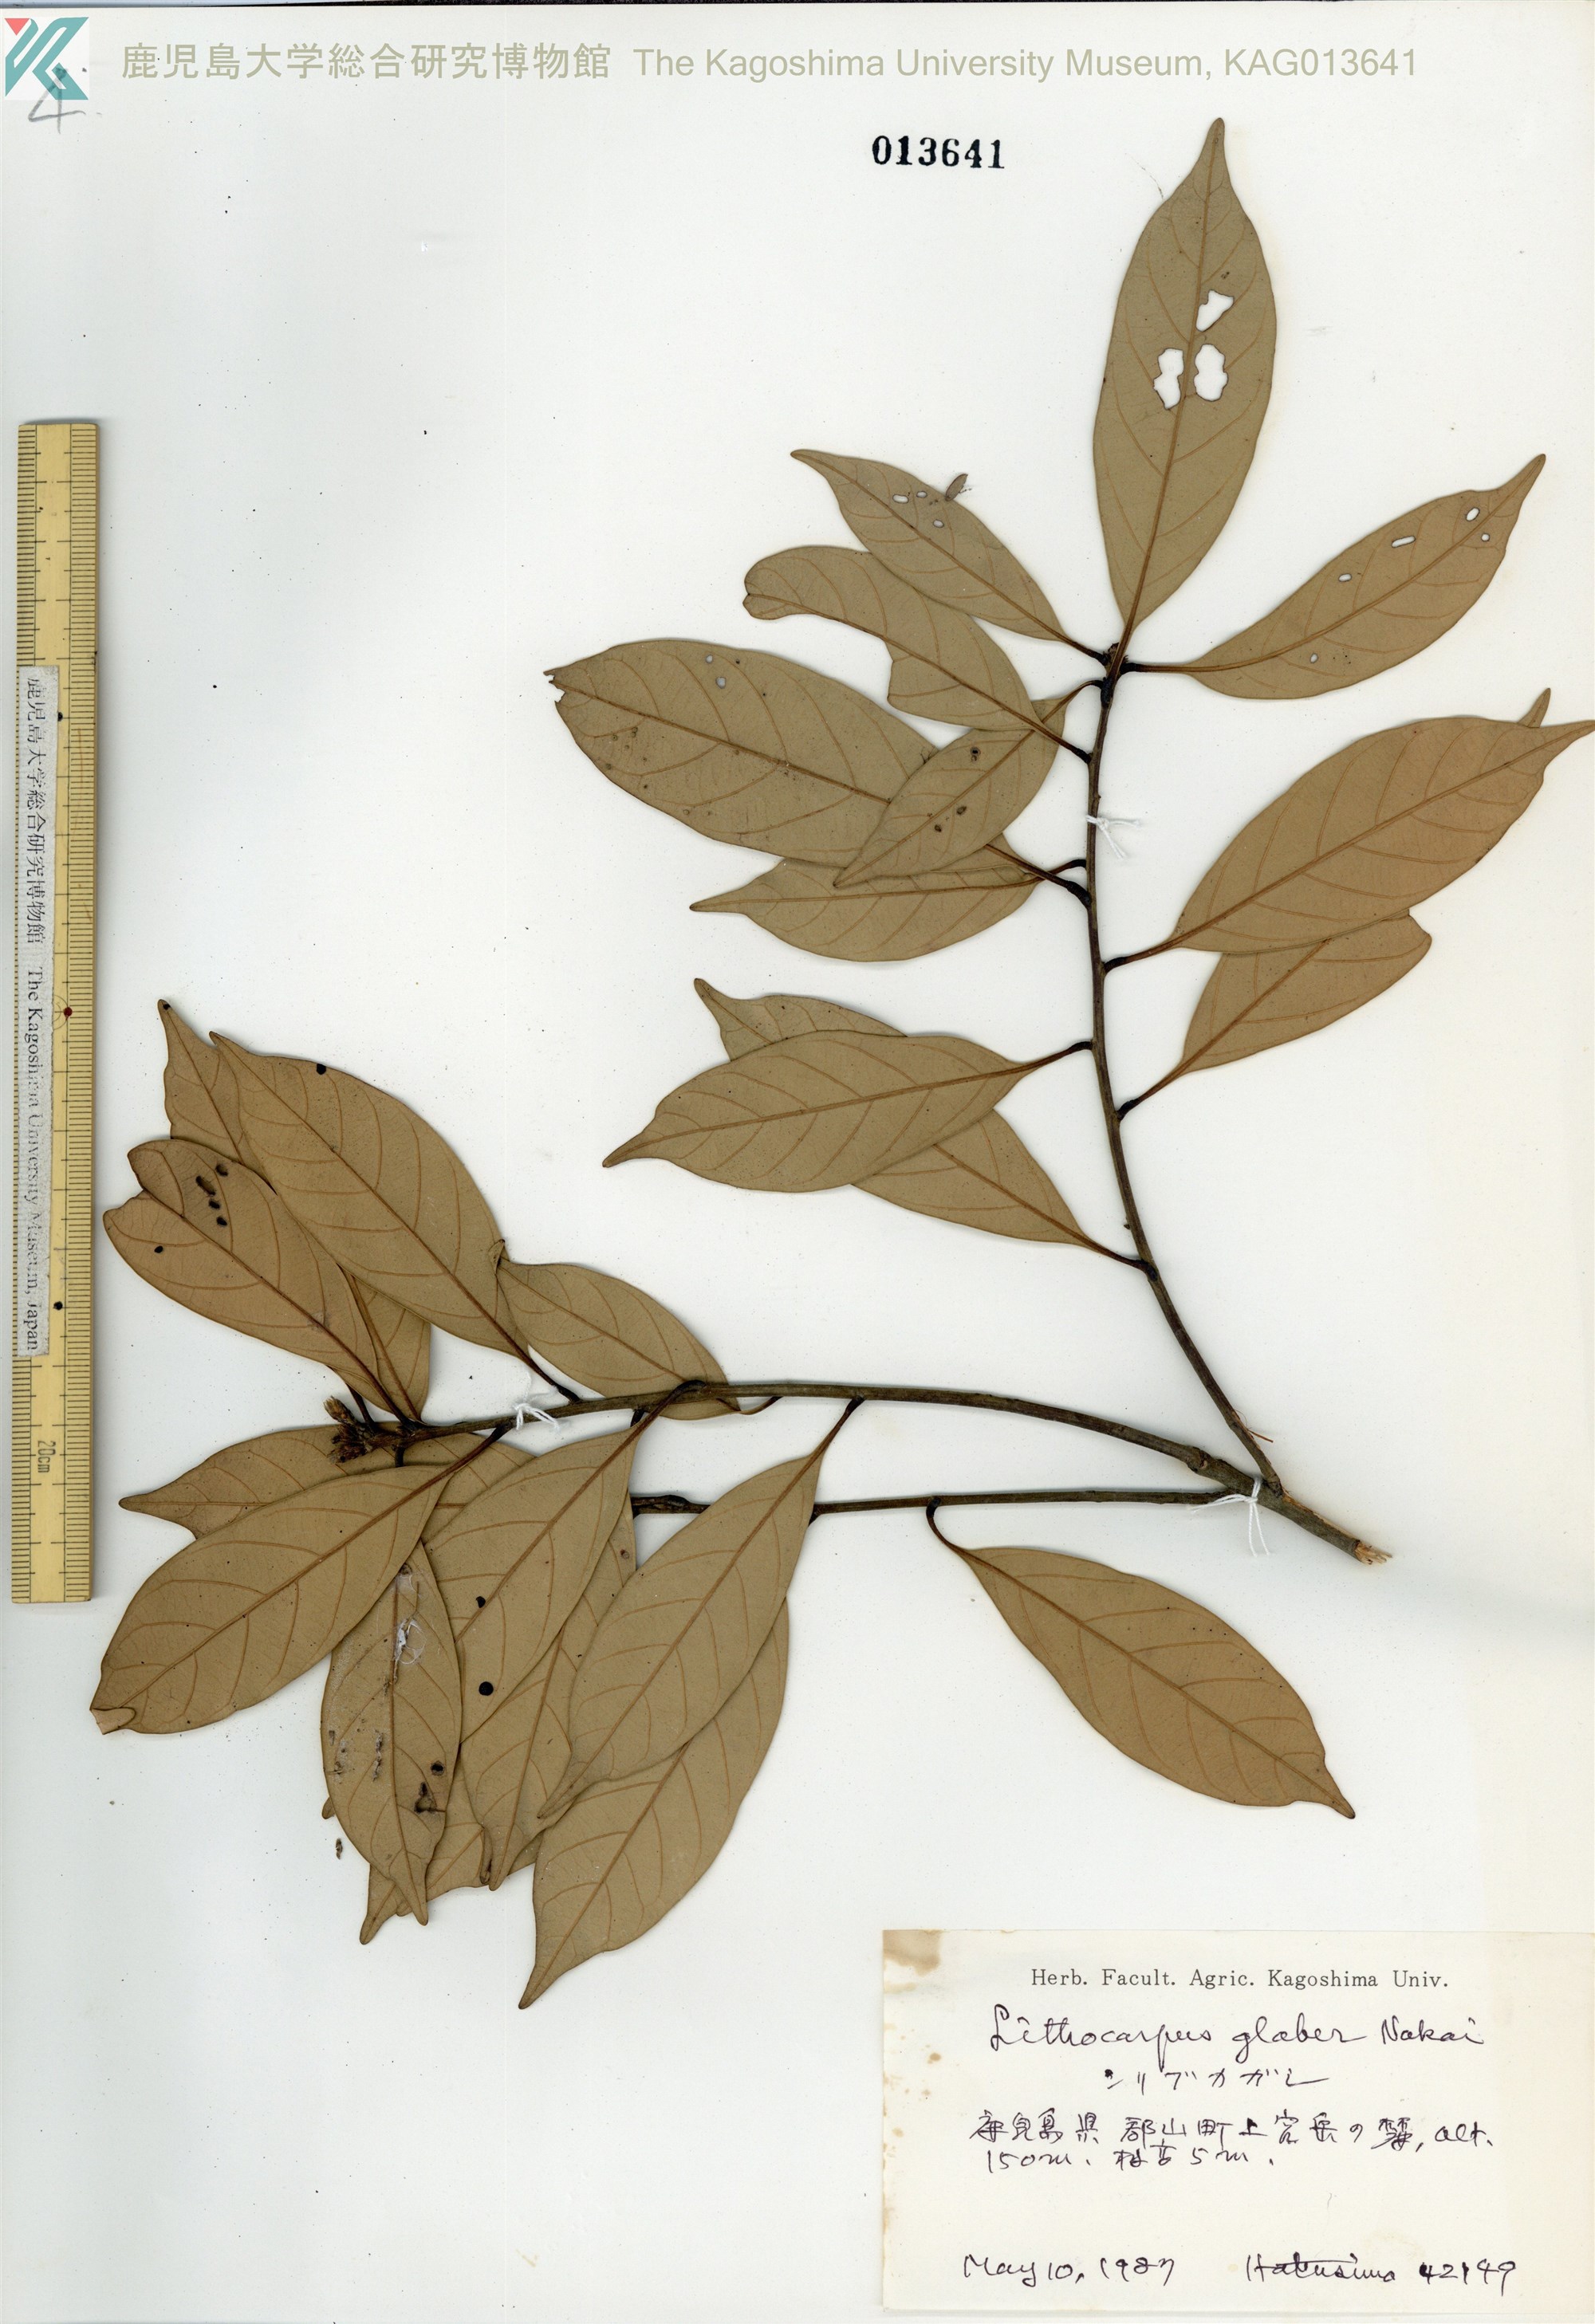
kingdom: Plantae
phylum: Tracheophyta
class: Magnoliopsida
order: Fagales
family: Fagaceae
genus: Lithocarpus
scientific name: Lithocarpus glaber
